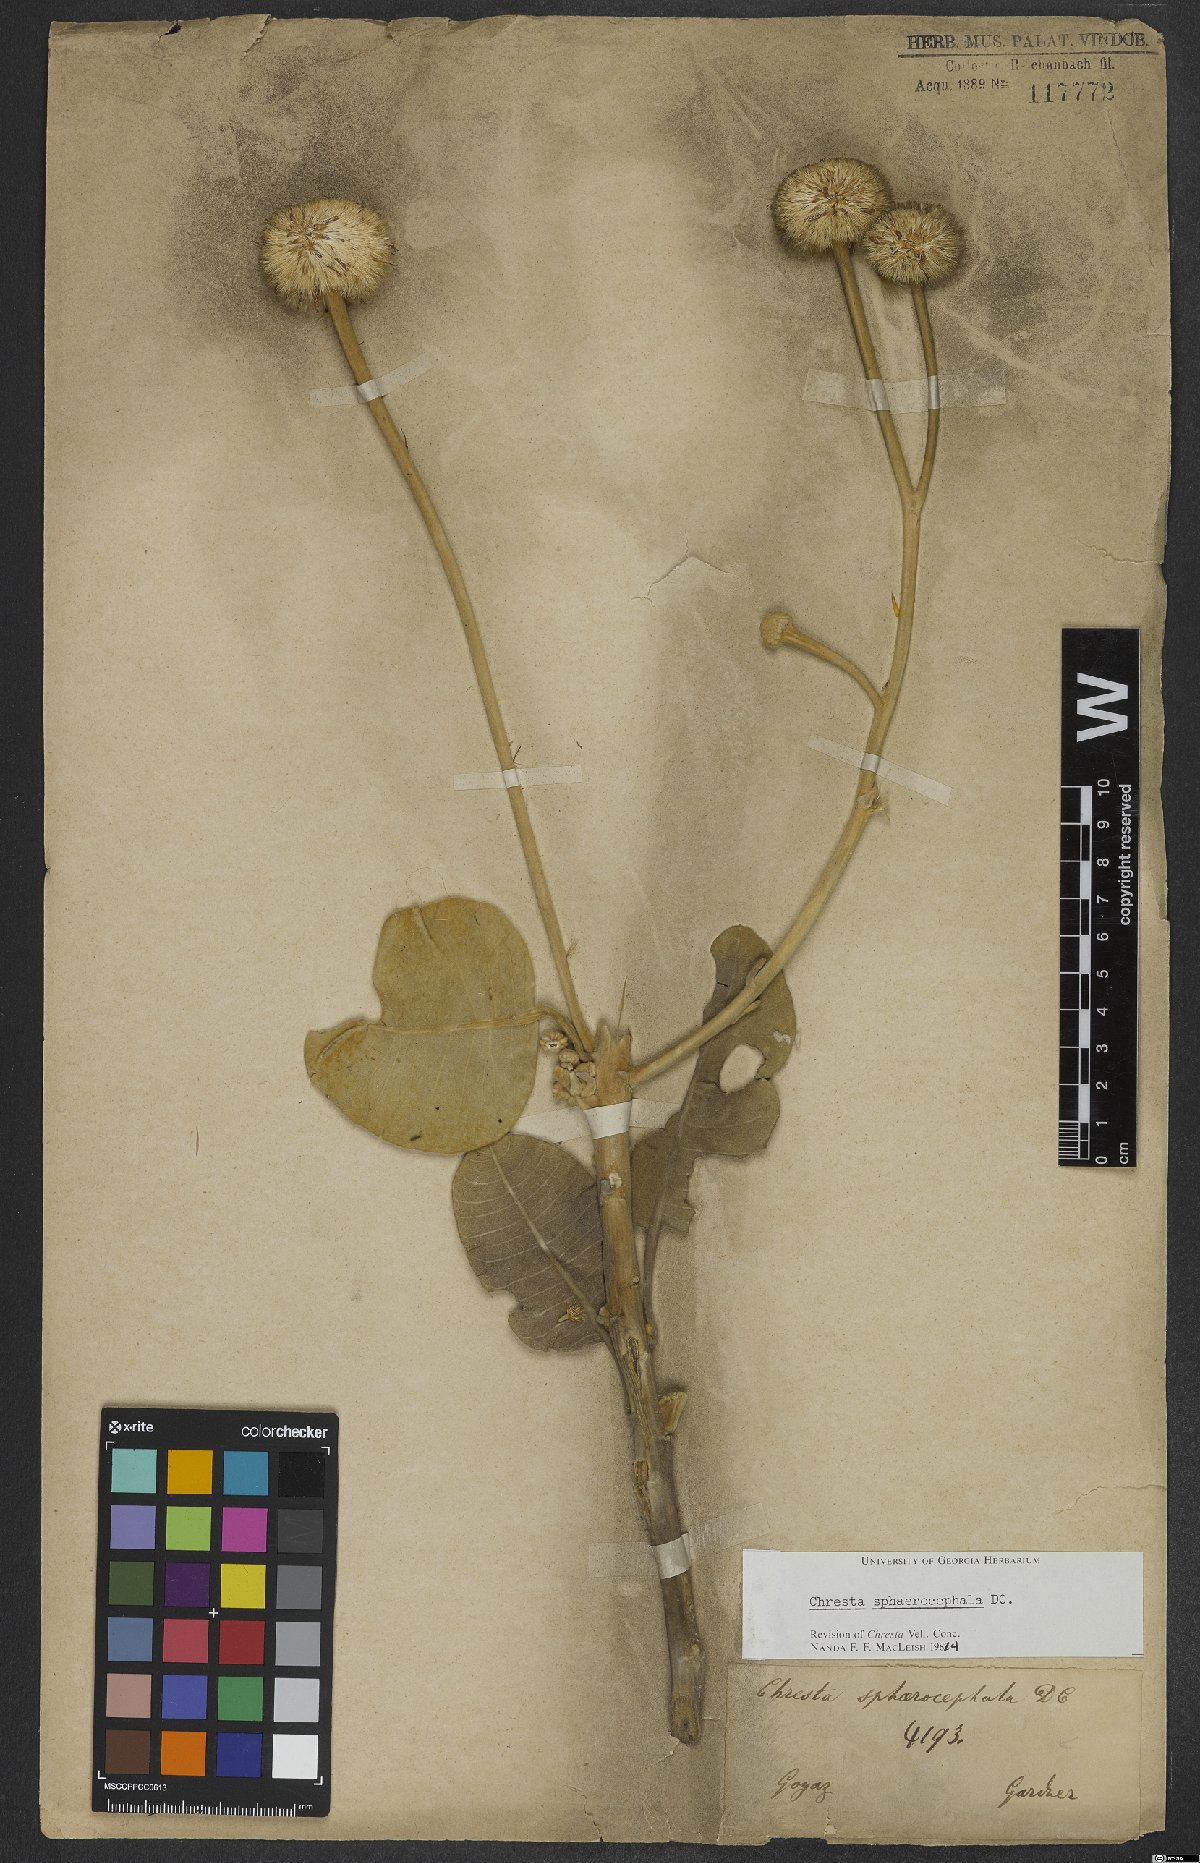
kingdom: Plantae
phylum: Tracheophyta
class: Magnoliopsida
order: Asterales
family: Asteraceae
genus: Chresta
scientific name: Chresta sphaerocephala
